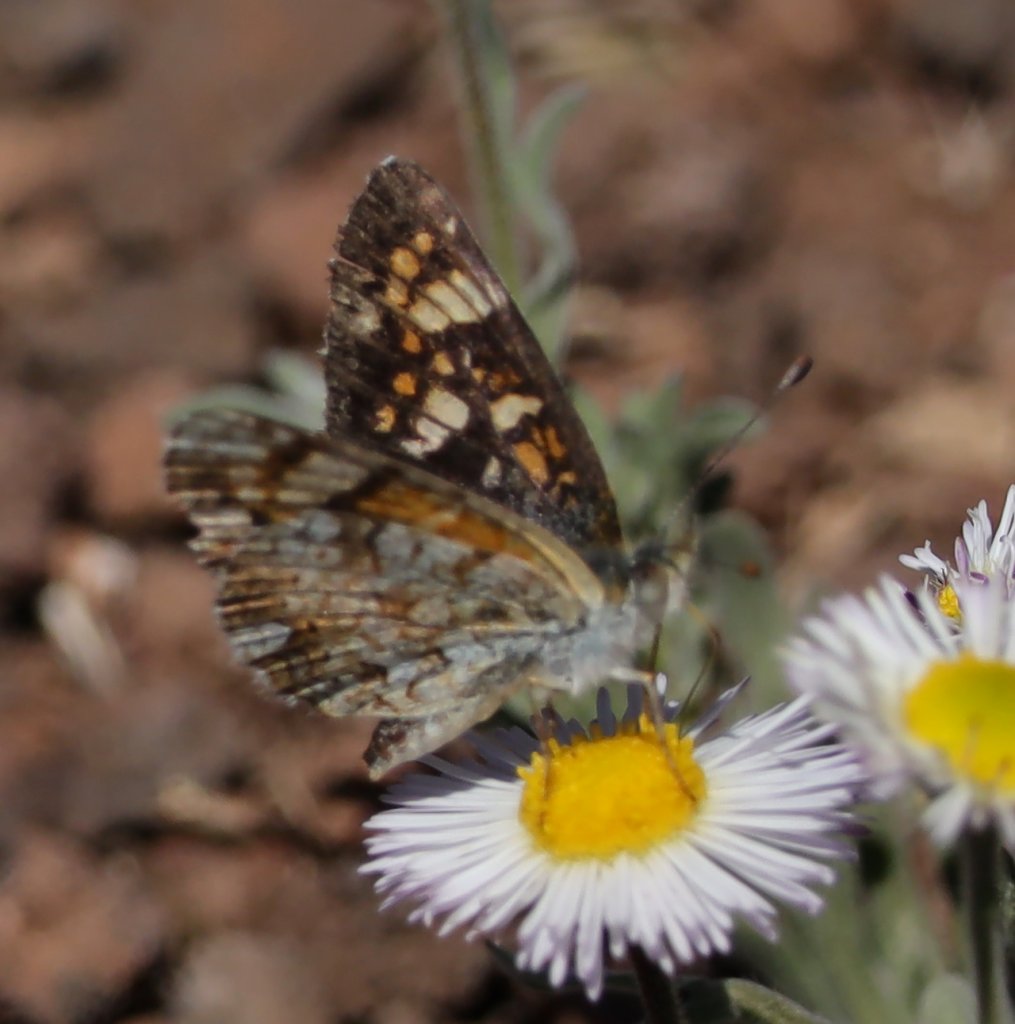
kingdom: Animalia
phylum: Arthropoda
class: Insecta
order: Lepidoptera
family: Nymphalidae
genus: Phyciodes
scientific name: Phyciodes tharos
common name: Field Crescent
